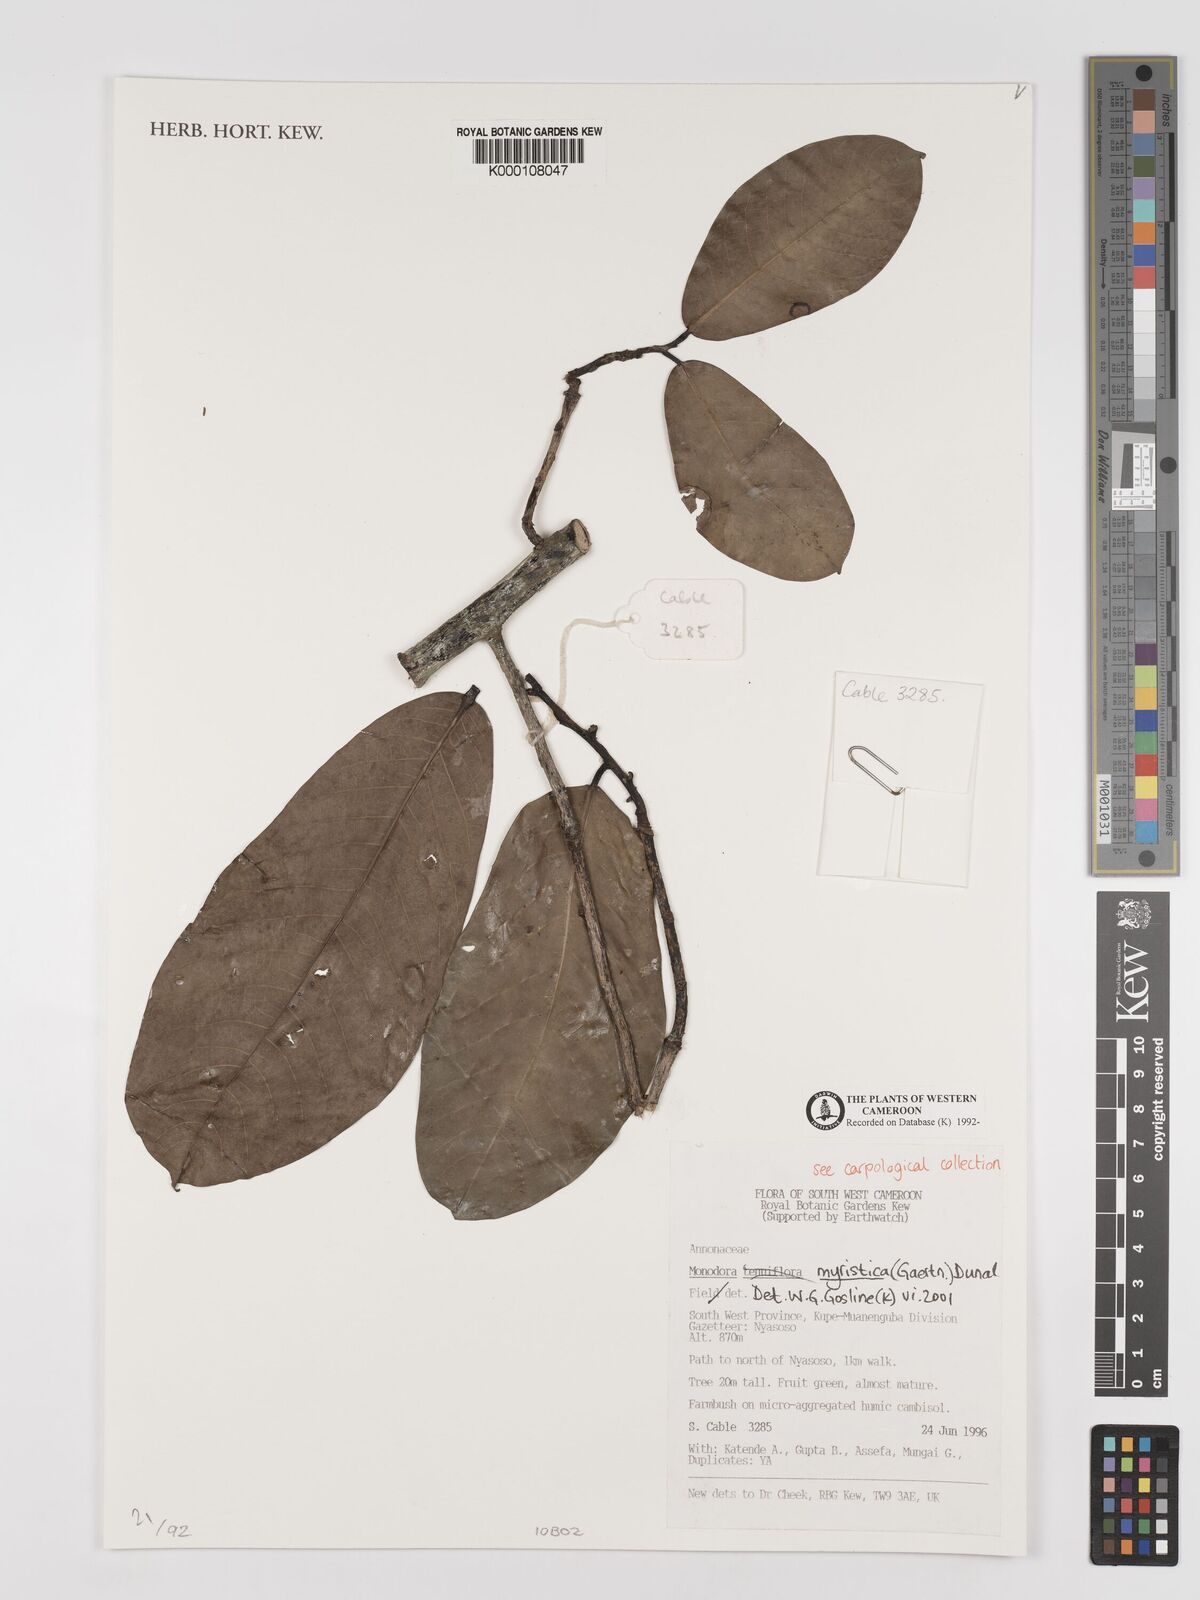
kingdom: Plantae
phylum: Tracheophyta
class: Magnoliopsida
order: Magnoliales
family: Annonaceae
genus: Monodora
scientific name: Monodora myristica
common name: African nutmeg
